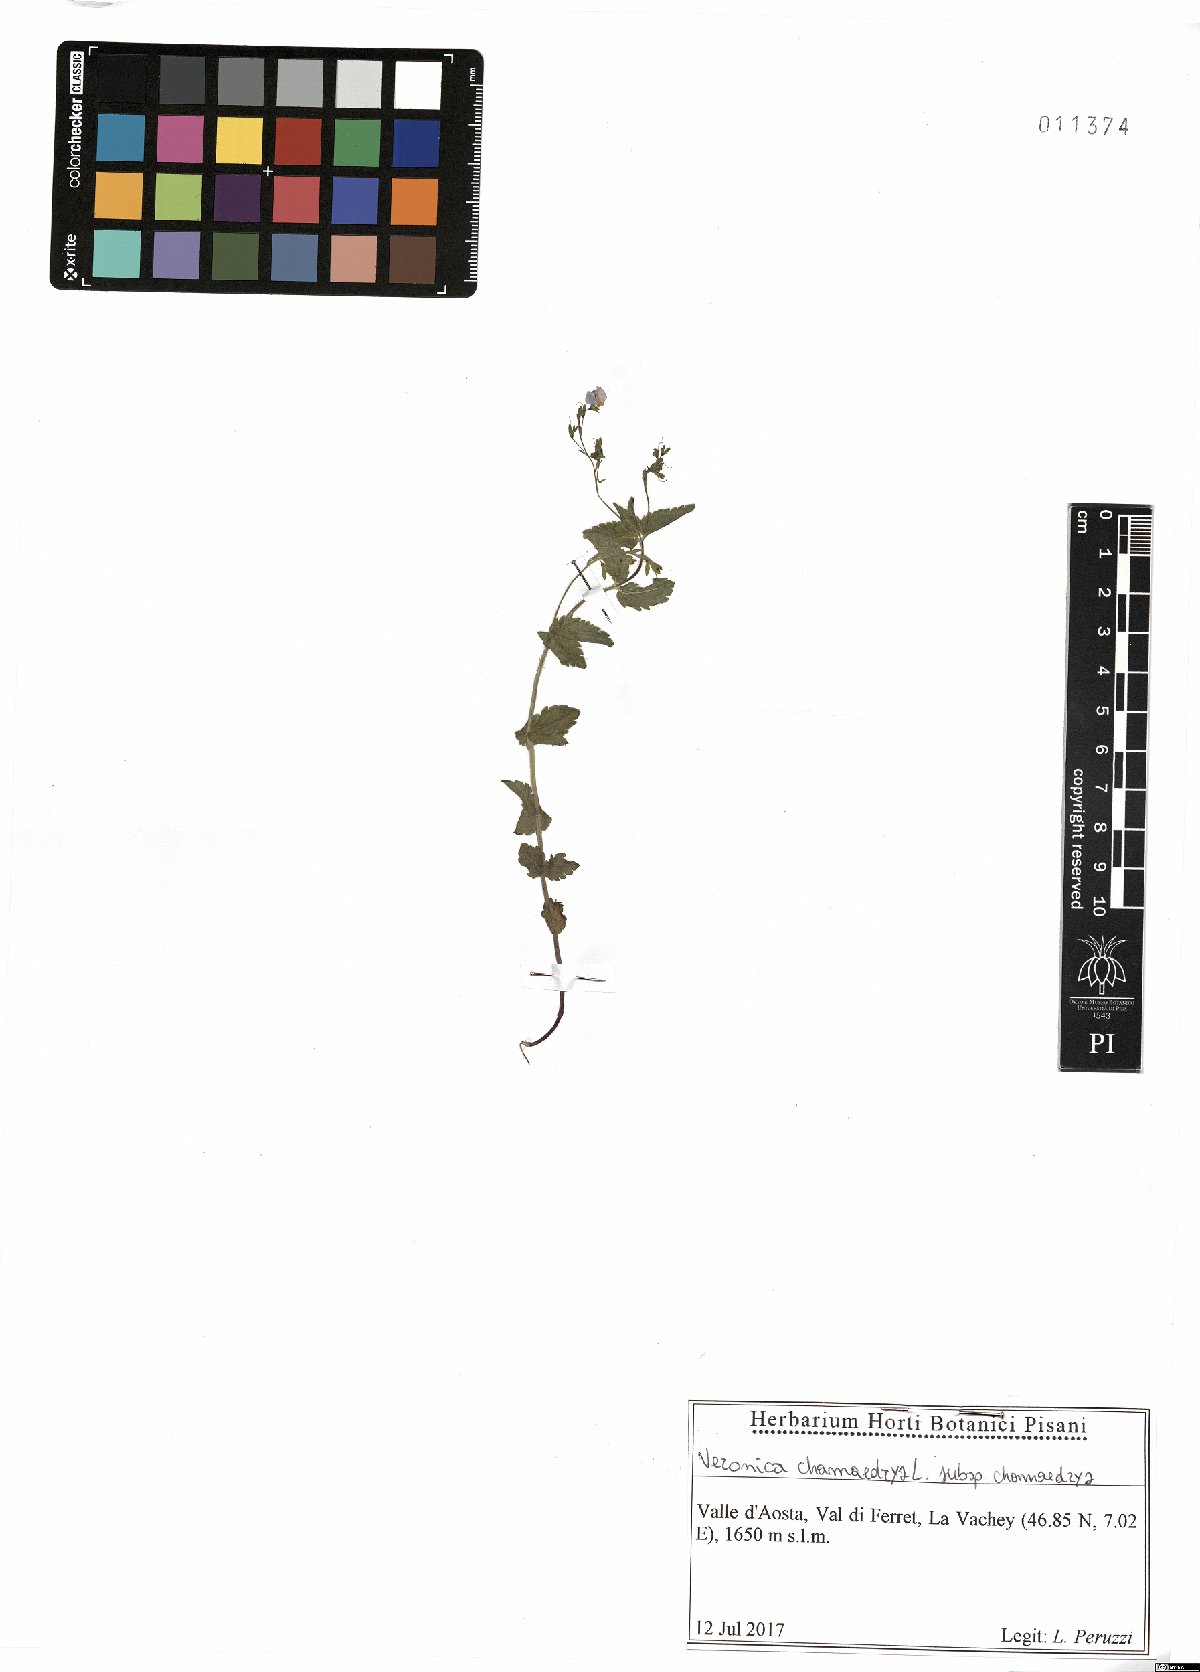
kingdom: Plantae
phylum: Tracheophyta
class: Magnoliopsida
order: Lamiales
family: Plantaginaceae
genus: Veronica
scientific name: Veronica chamaedrys
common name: Germander speedwell
